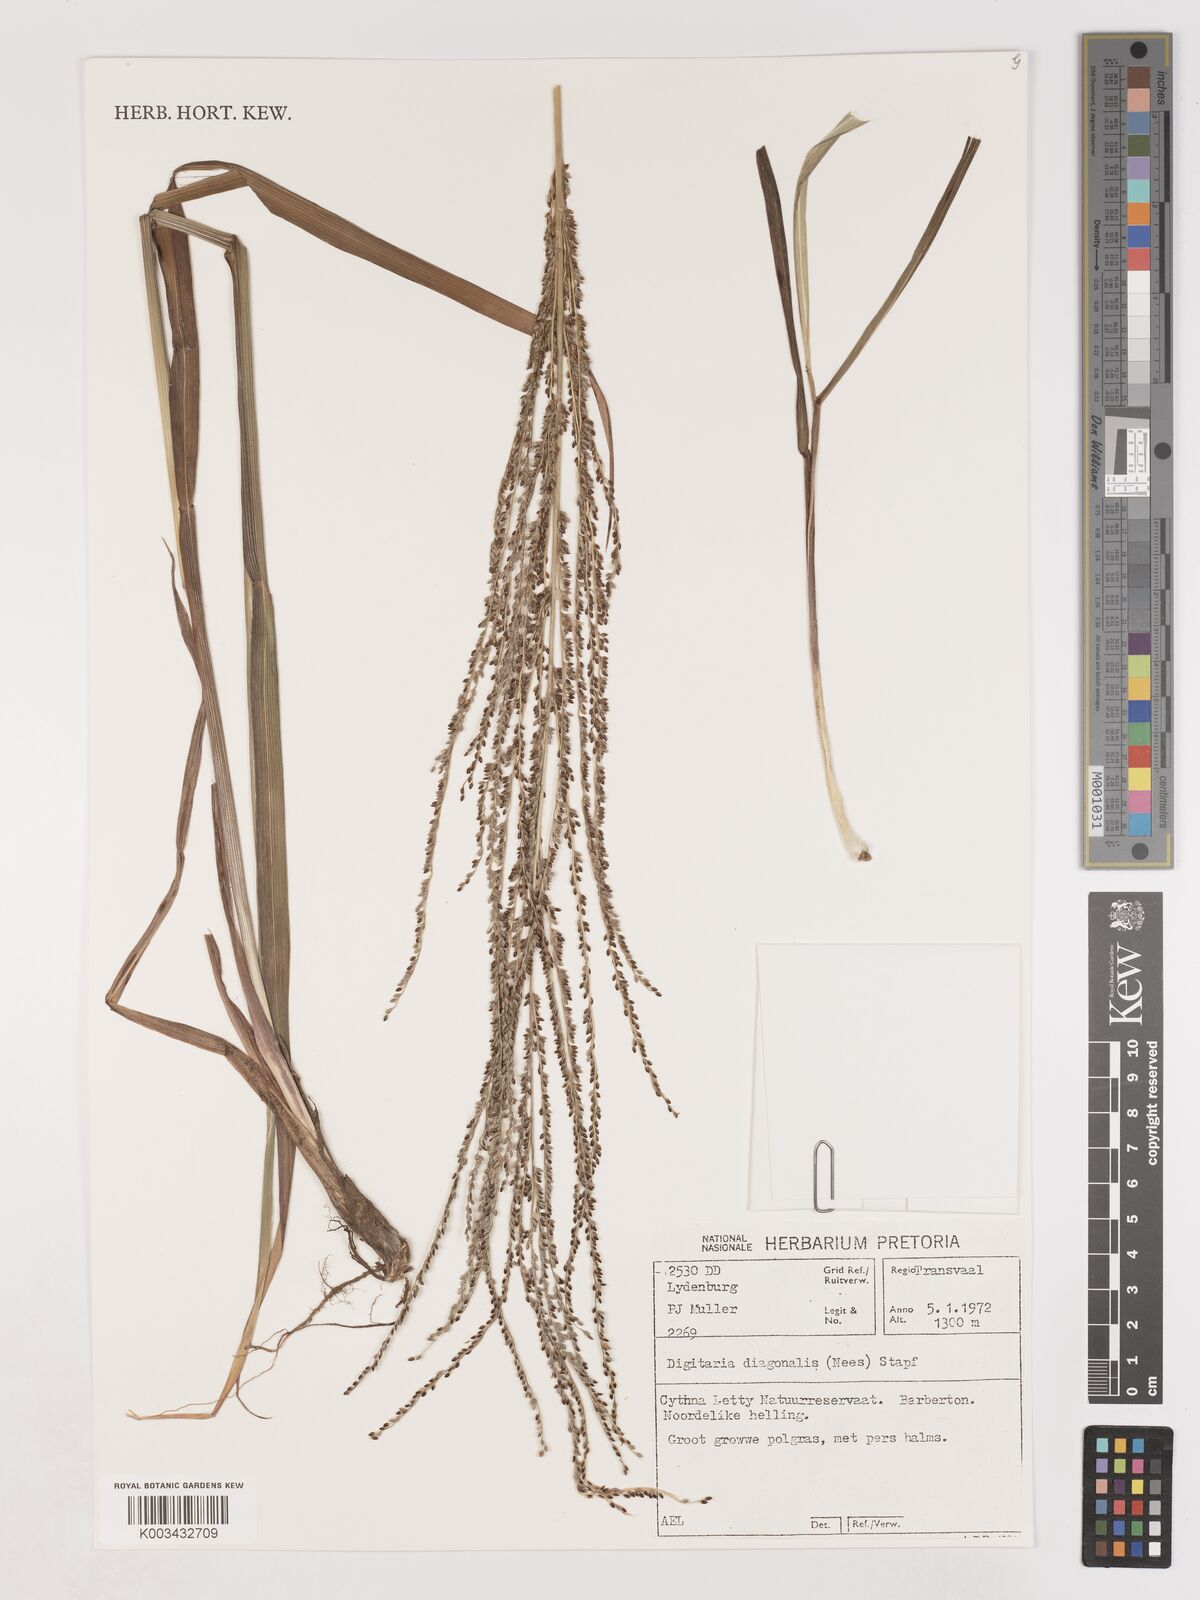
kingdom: Plantae
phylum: Tracheophyta
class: Liliopsida
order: Poales
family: Poaceae
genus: Digitaria
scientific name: Digitaria diagonalis
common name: Brown-seed finger grass
